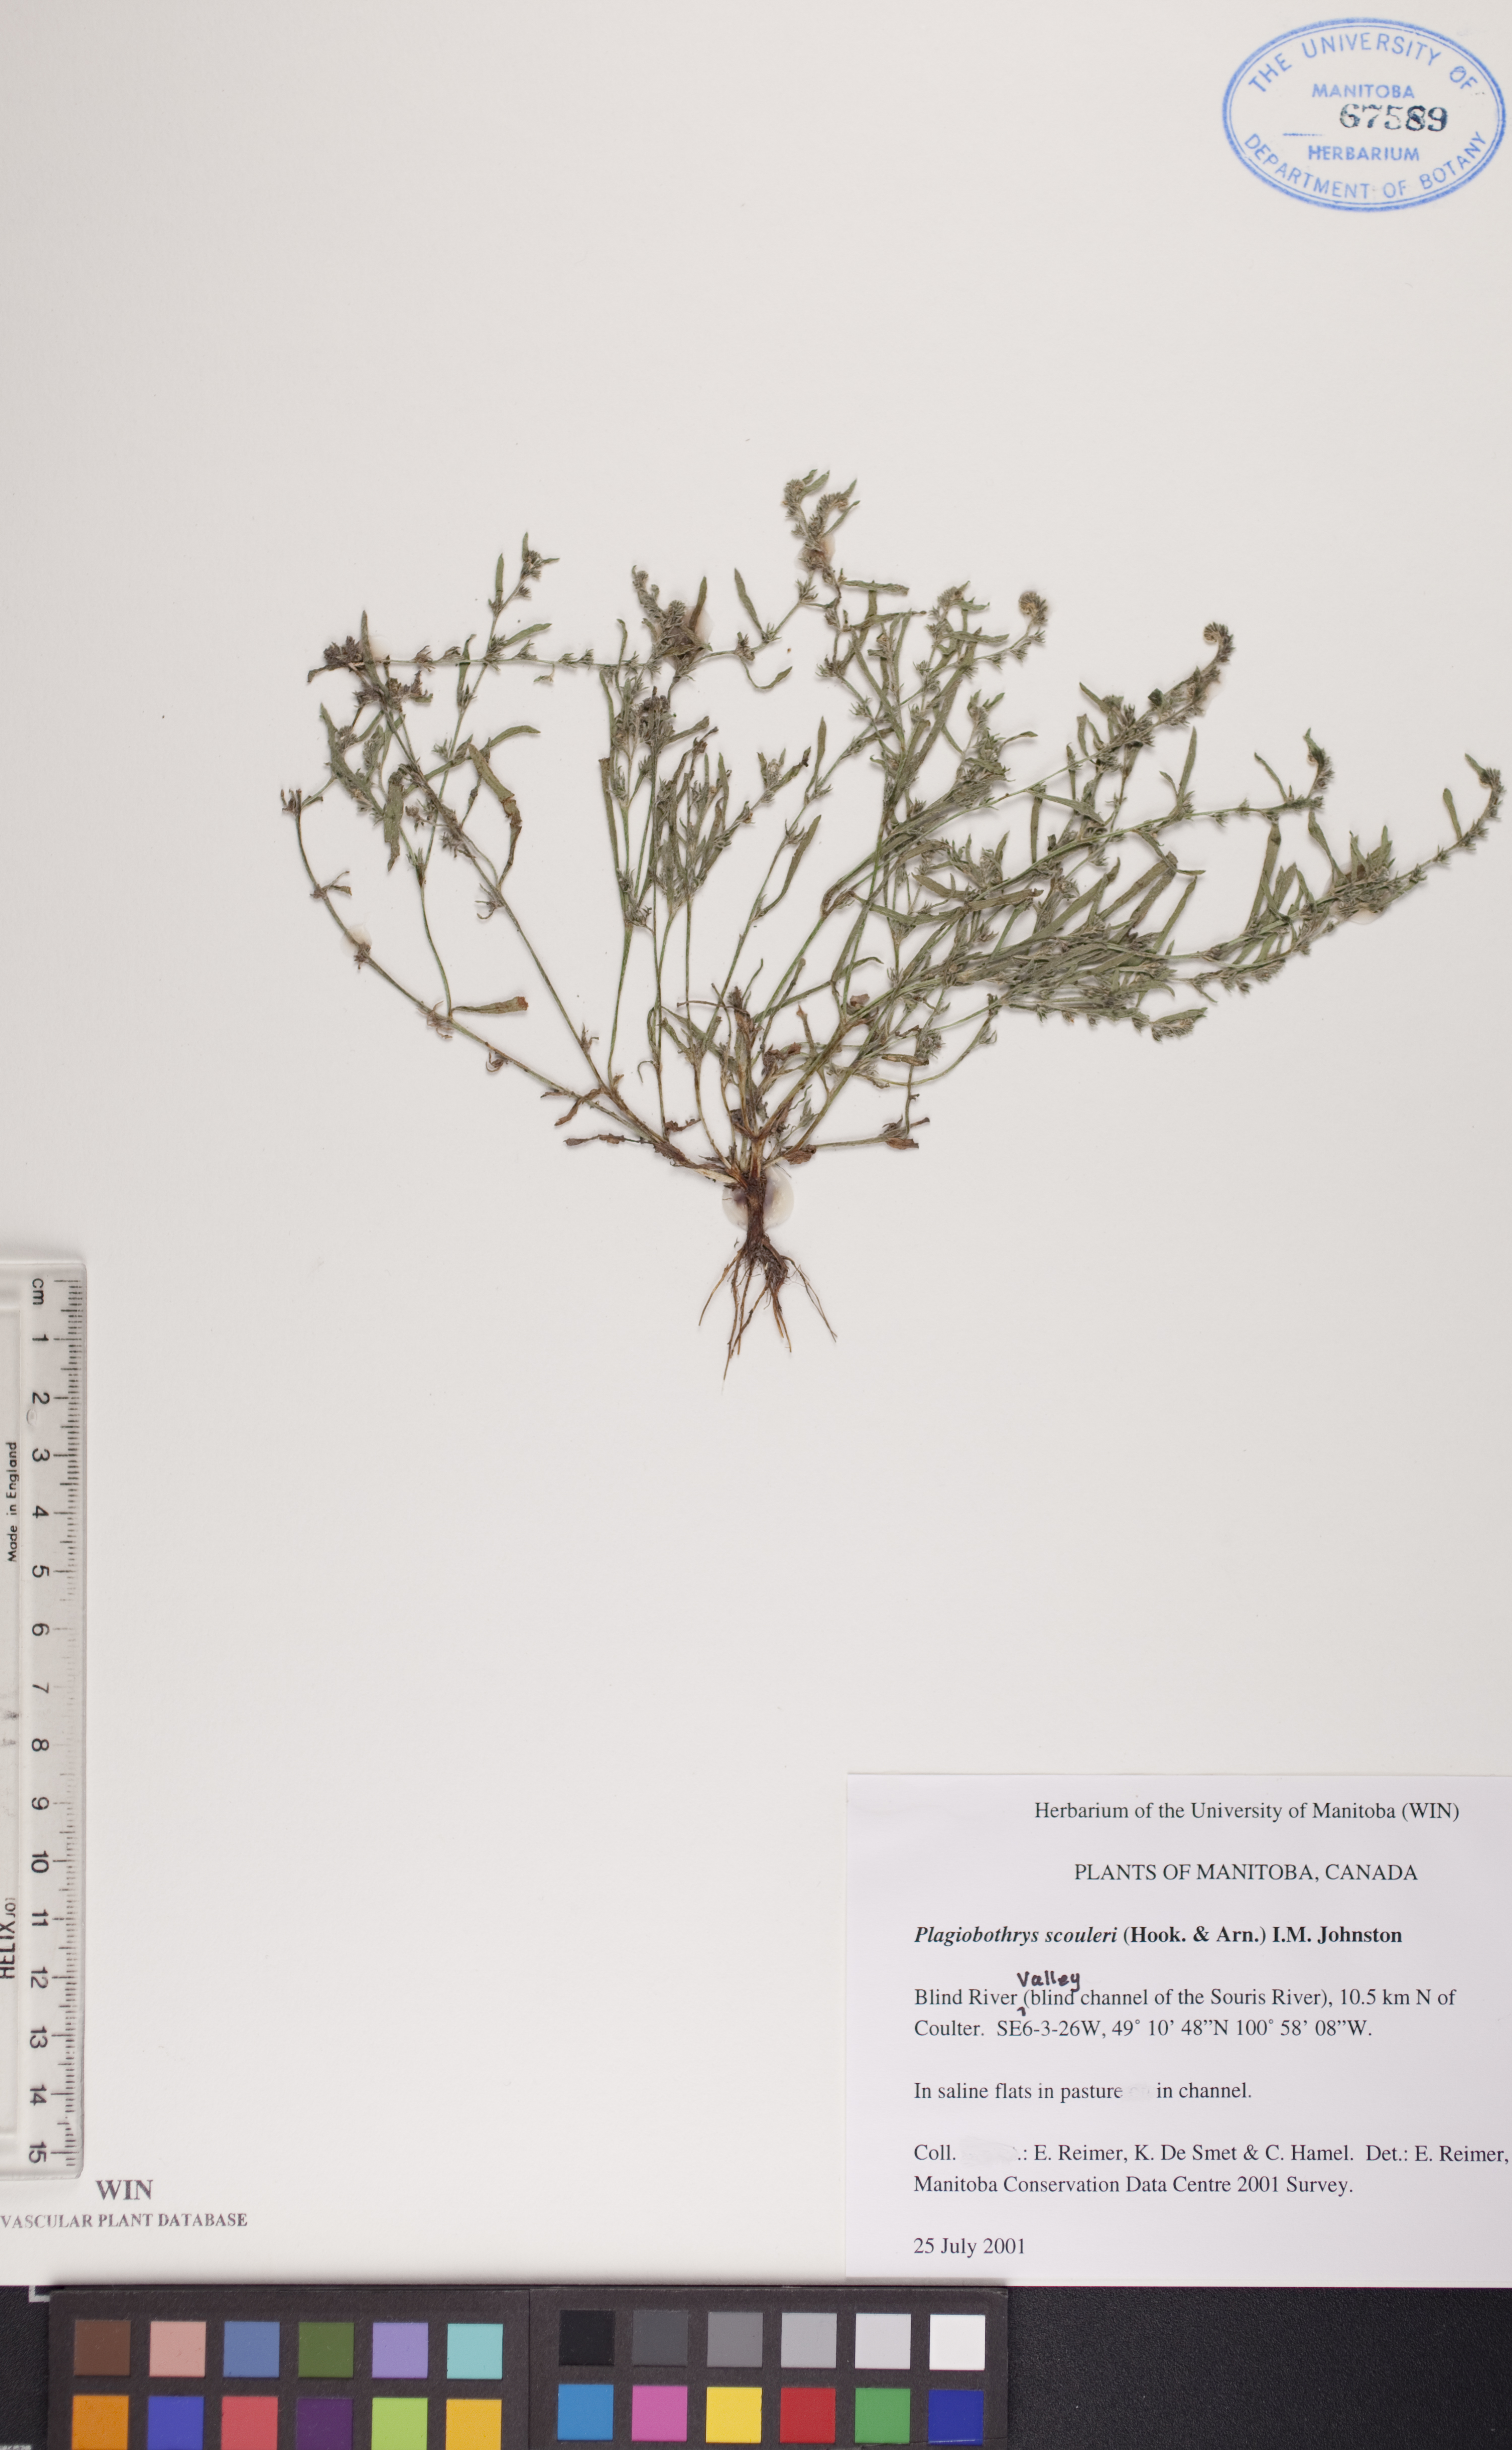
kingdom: Plantae
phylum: Tracheophyta
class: Magnoliopsida
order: Boraginales
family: Boraginaceae
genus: Plagiobothrys
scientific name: Plagiobothrys scouleri
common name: White forget-me-not
